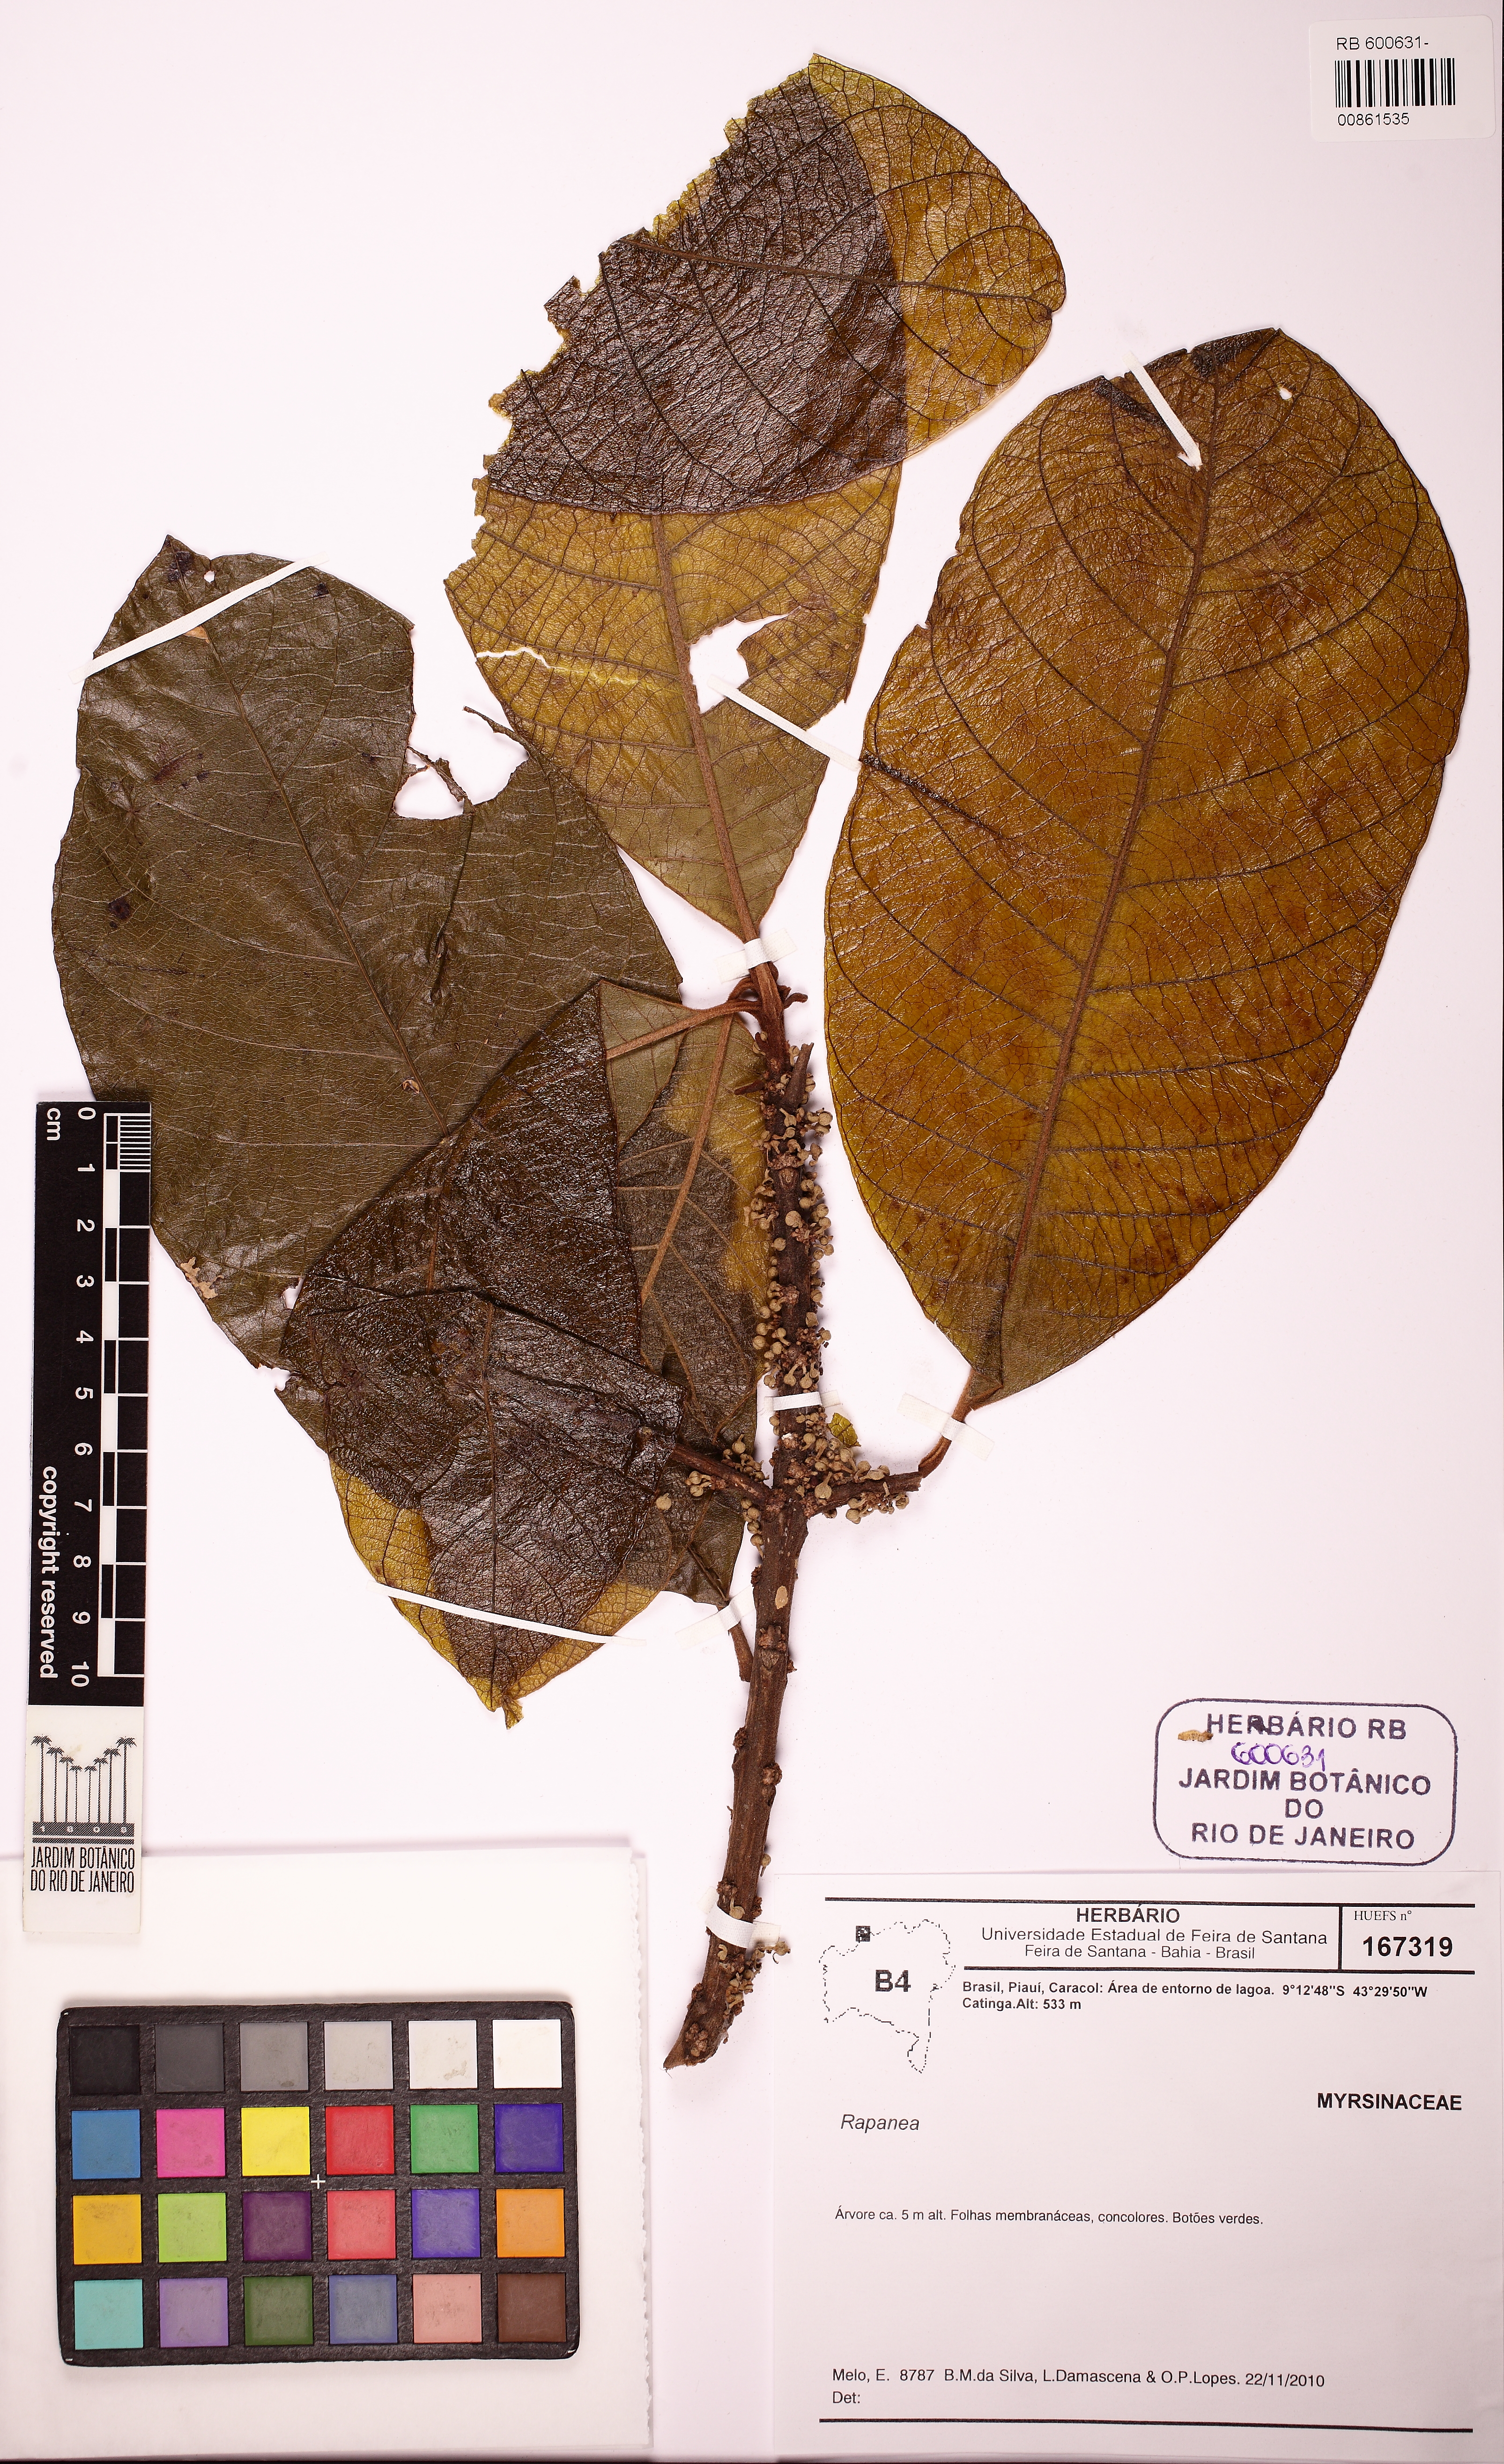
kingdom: Plantae
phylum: Tracheophyta
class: Magnoliopsida
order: Ericales
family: Sapotaceae
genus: Pouteria
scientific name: Pouteria furcata
